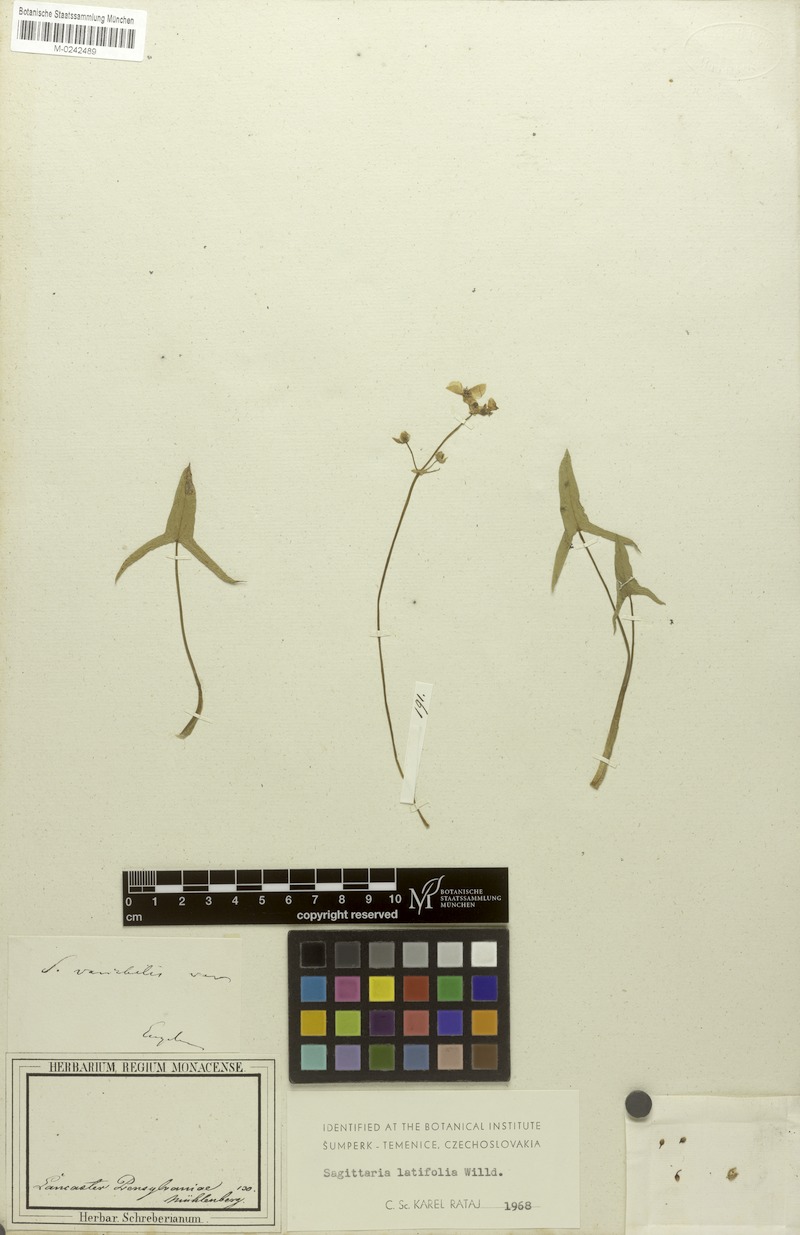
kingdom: Plantae
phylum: Tracheophyta
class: Liliopsida
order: Alismatales
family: Alismataceae
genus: Sagittaria
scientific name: Sagittaria latifolia
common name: Duck-potato
